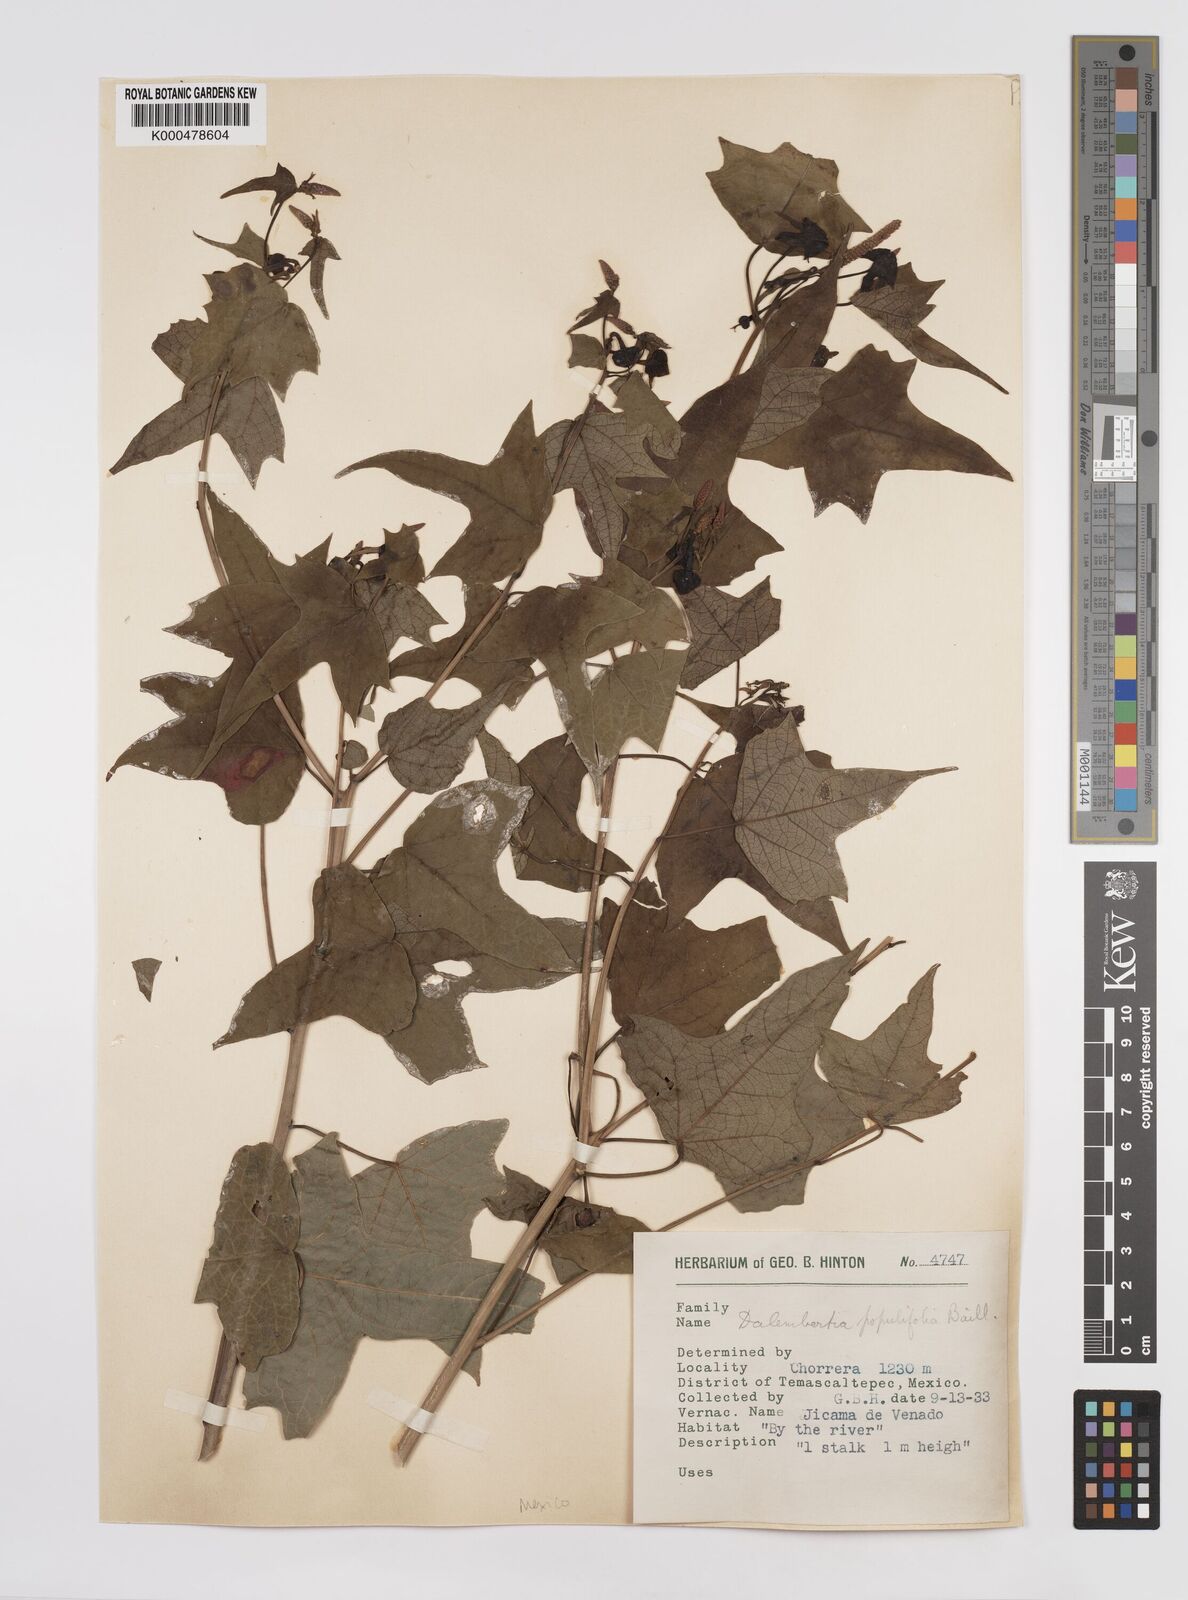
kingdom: Plantae
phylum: Tracheophyta
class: Magnoliopsida
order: Malpighiales
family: Euphorbiaceae
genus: Dalembertia
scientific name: Dalembertia populifolia
